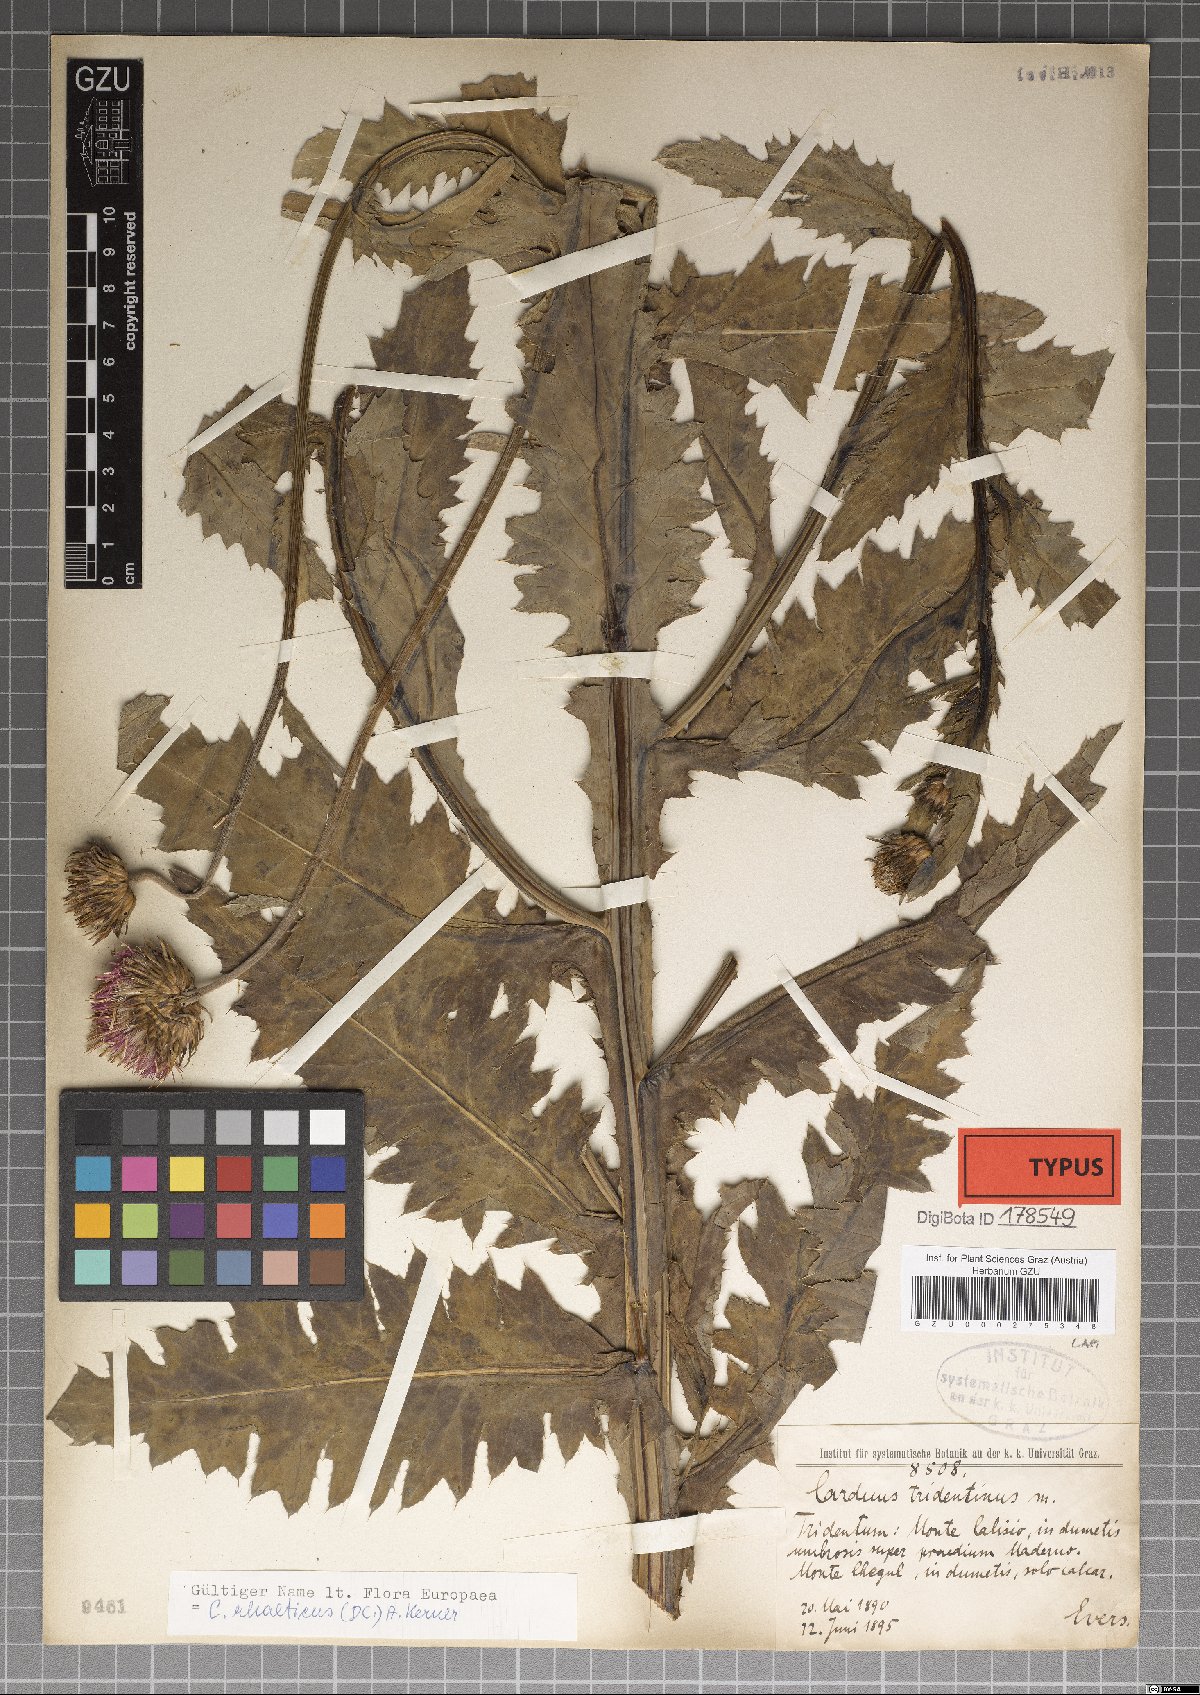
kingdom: Plantae
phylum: Tracheophyta
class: Magnoliopsida
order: Asterales
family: Asteraceae
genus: Carduus
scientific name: Carduus defloratus
